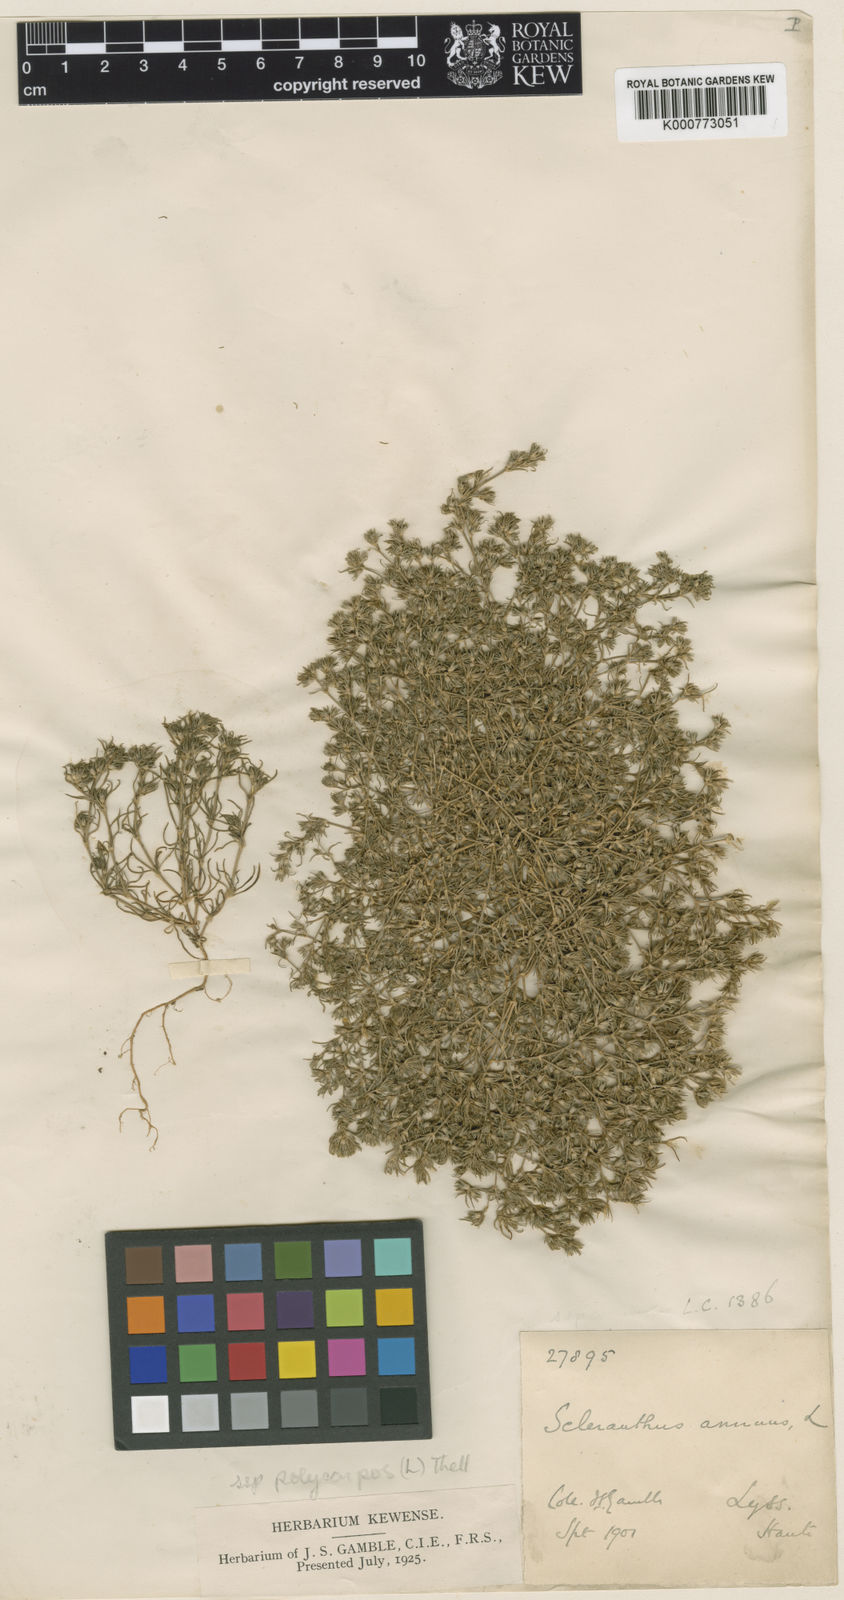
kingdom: Plantae
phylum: Tracheophyta
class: Magnoliopsida
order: Caryophyllales
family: Caryophyllaceae
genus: Scleranthus
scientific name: Scleranthus annuus
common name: Annual knawel
